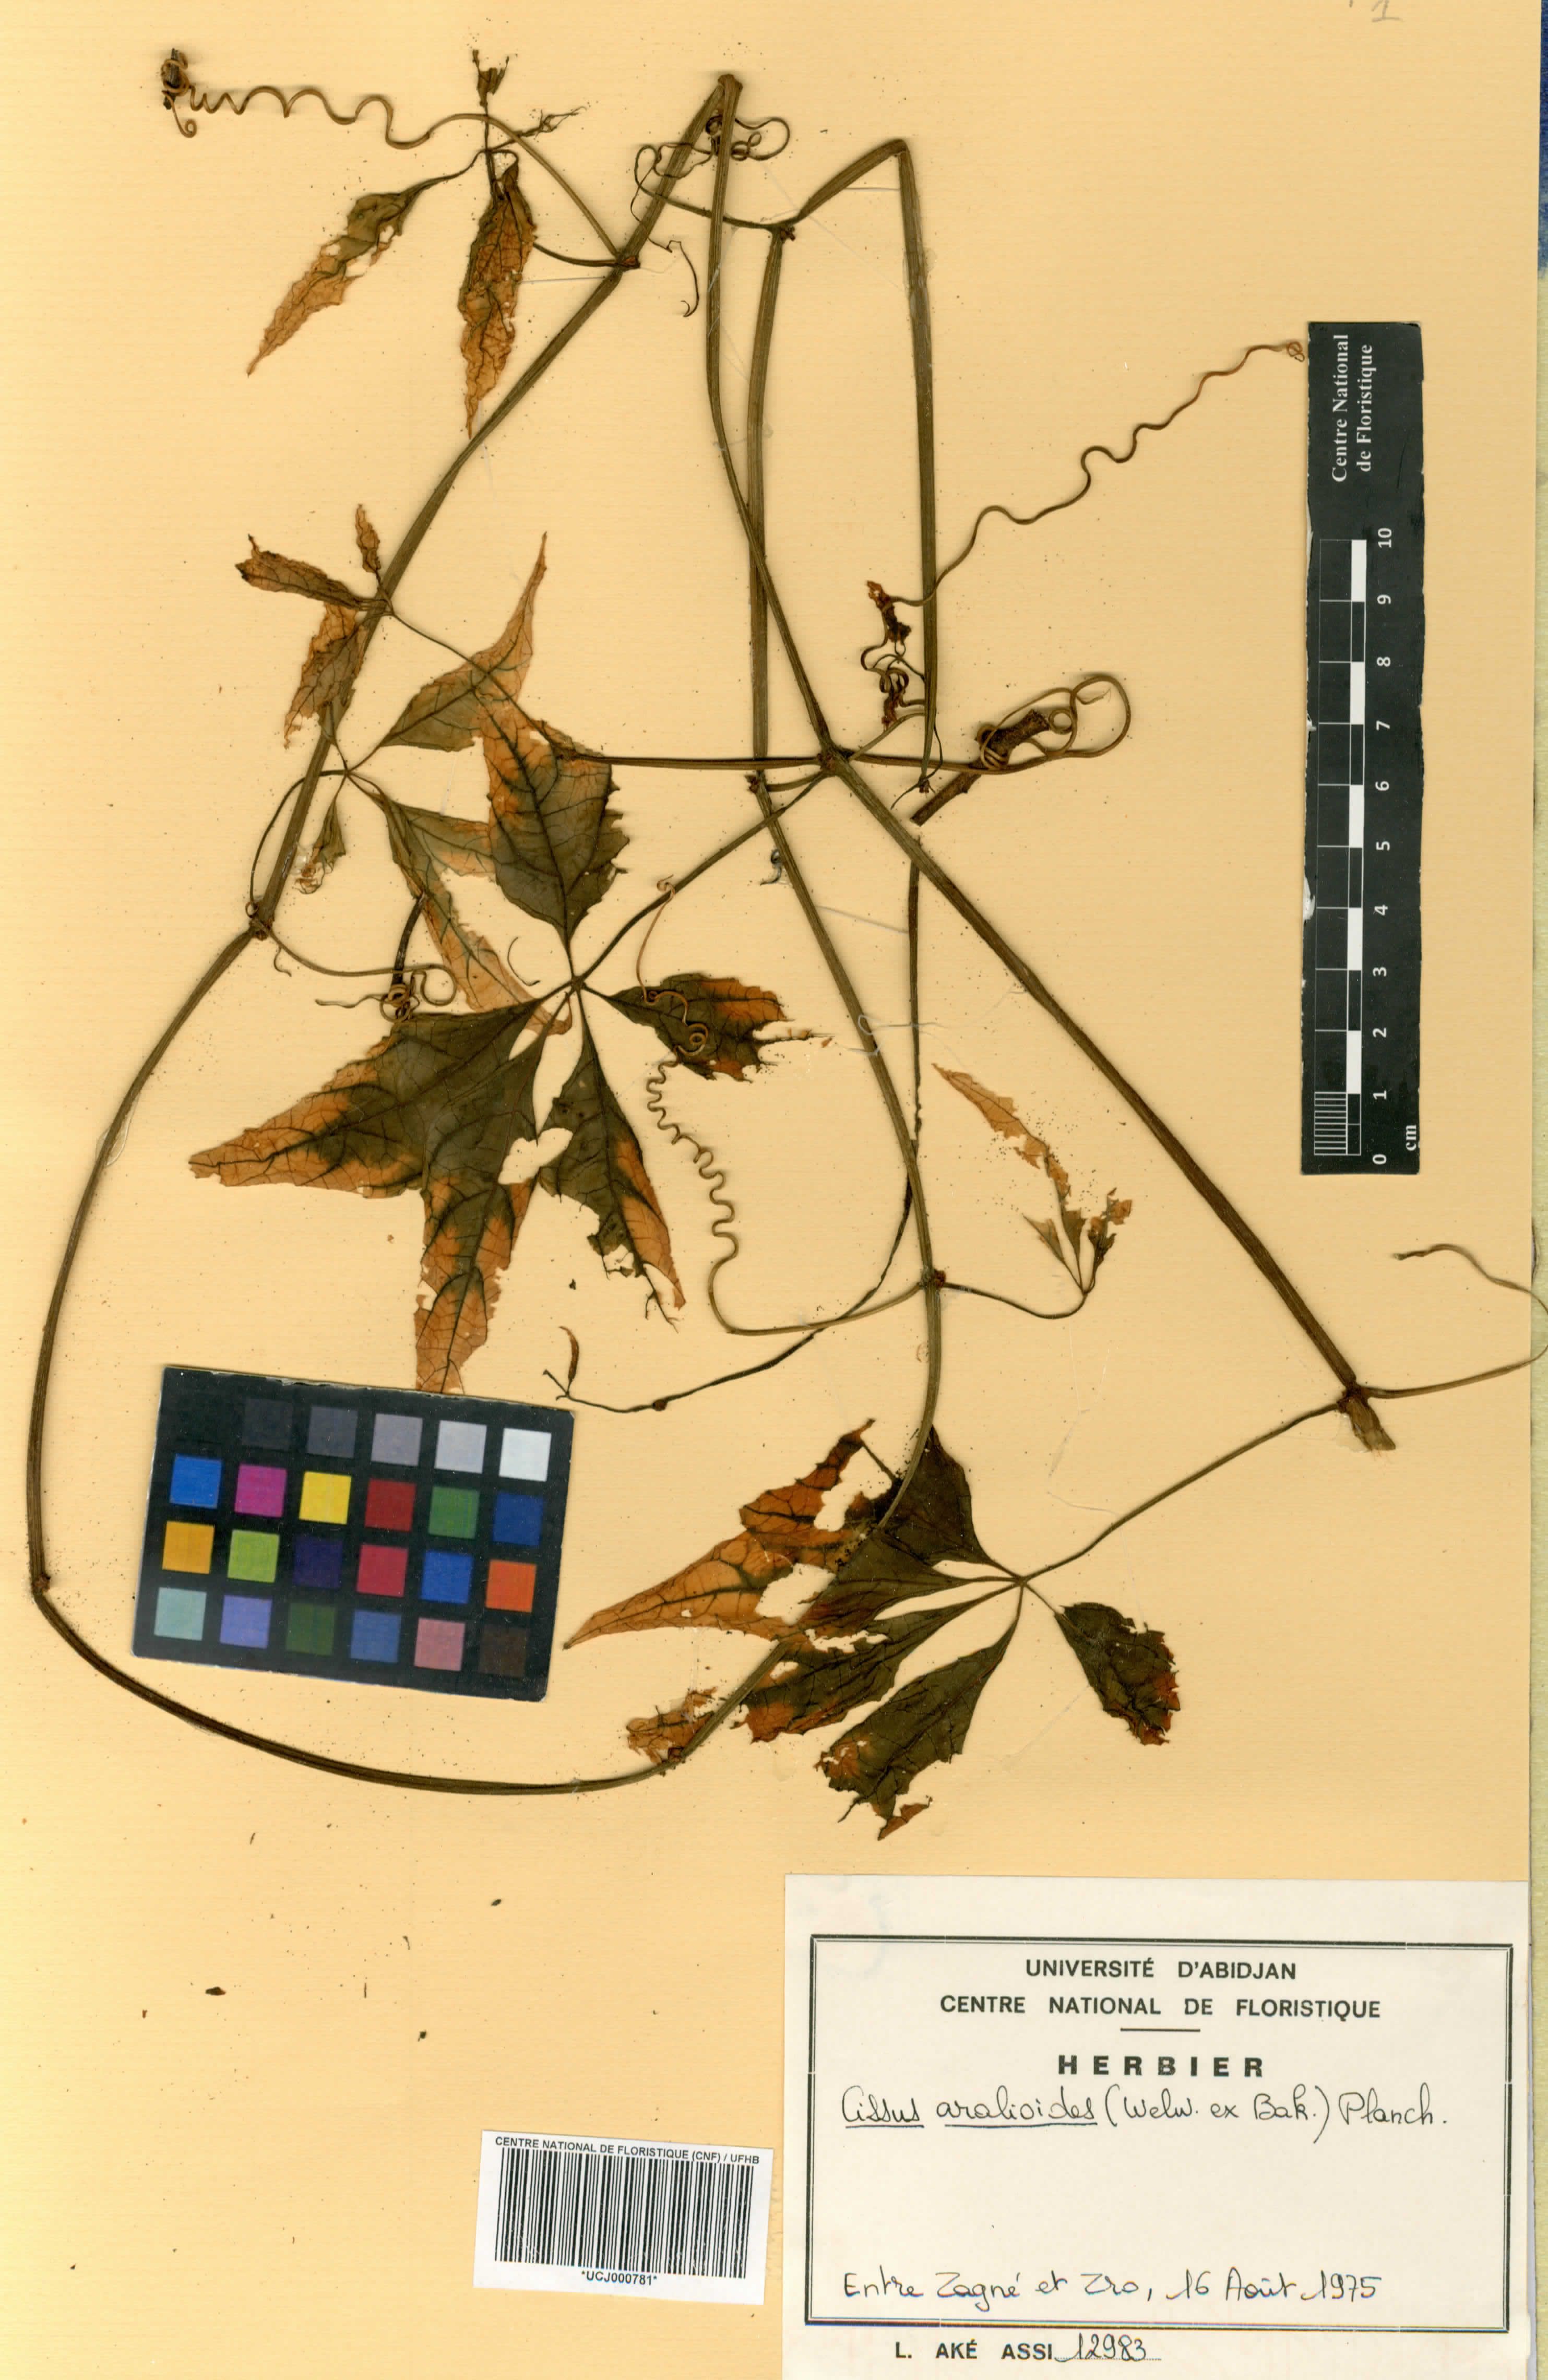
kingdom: Plantae
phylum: Tracheophyta
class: Magnoliopsida
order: Vitales
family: Vitaceae
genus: Cissus
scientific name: Cissus aralioides
